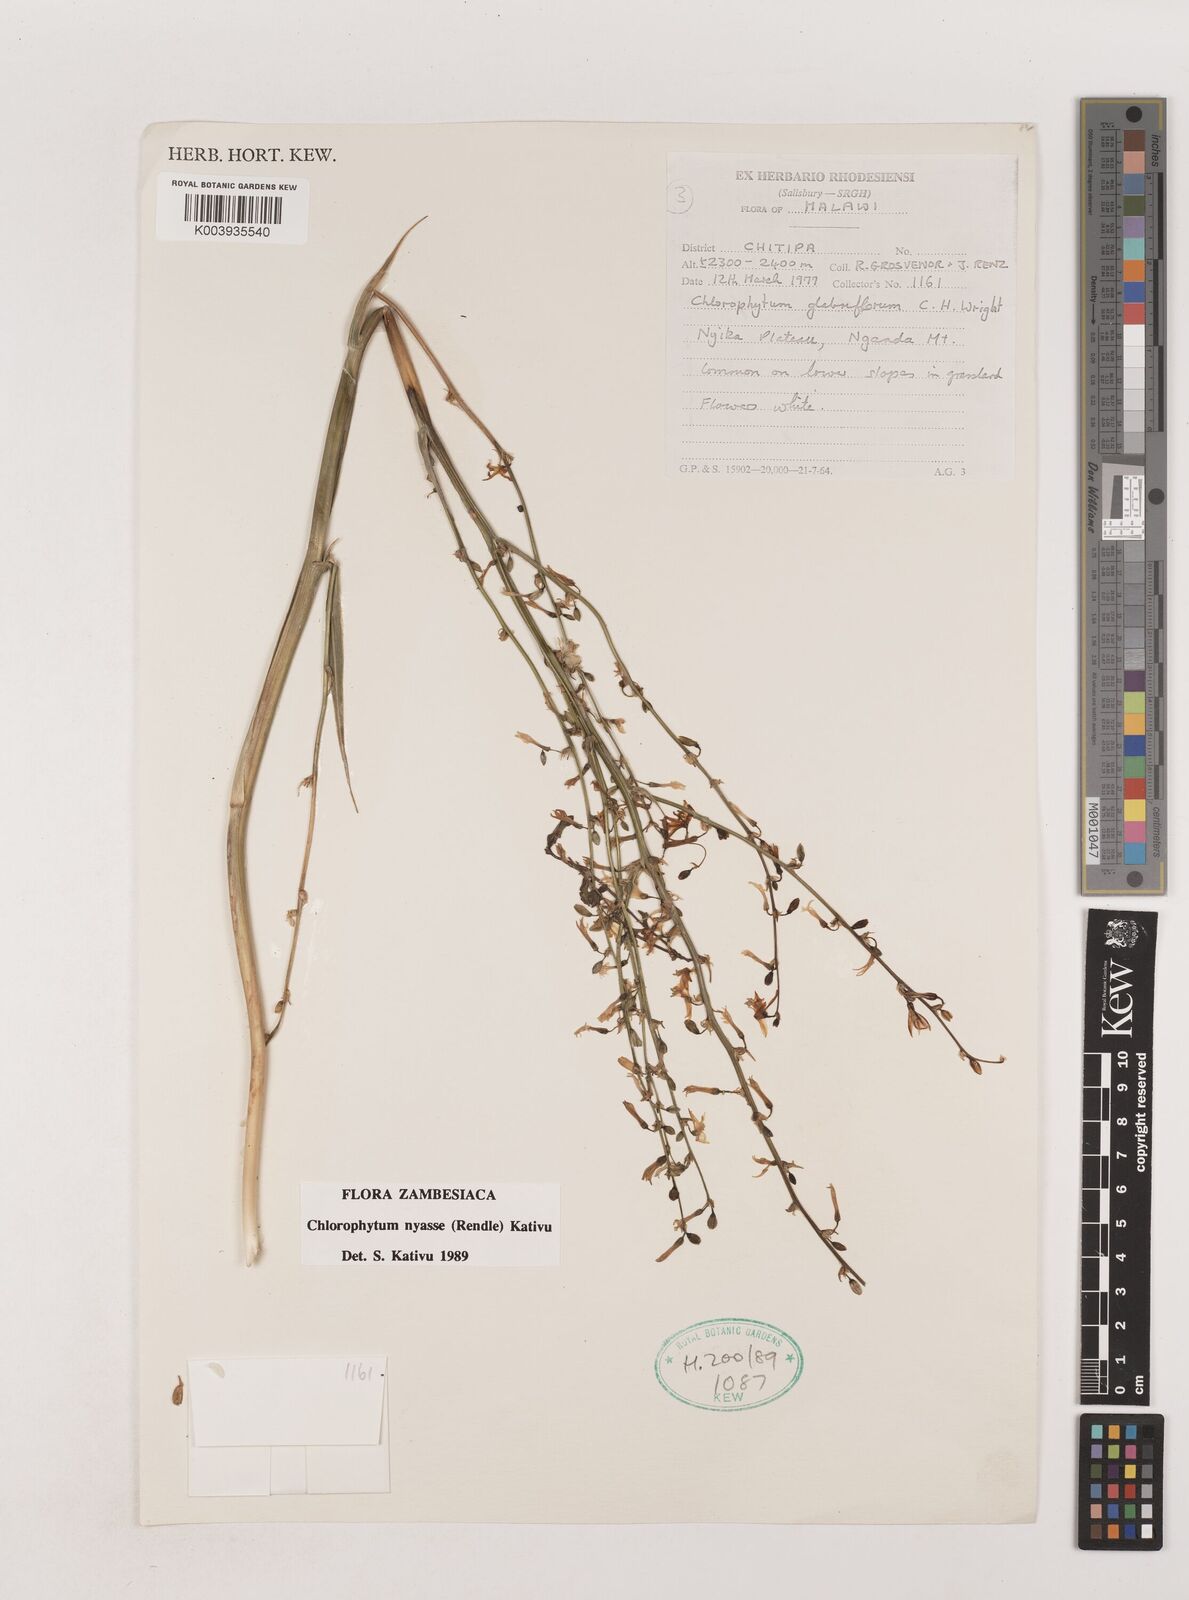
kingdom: Plantae
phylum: Tracheophyta
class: Liliopsida
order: Asparagales
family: Asparagaceae
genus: Chlorophytum
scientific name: Chlorophytum nyasae
